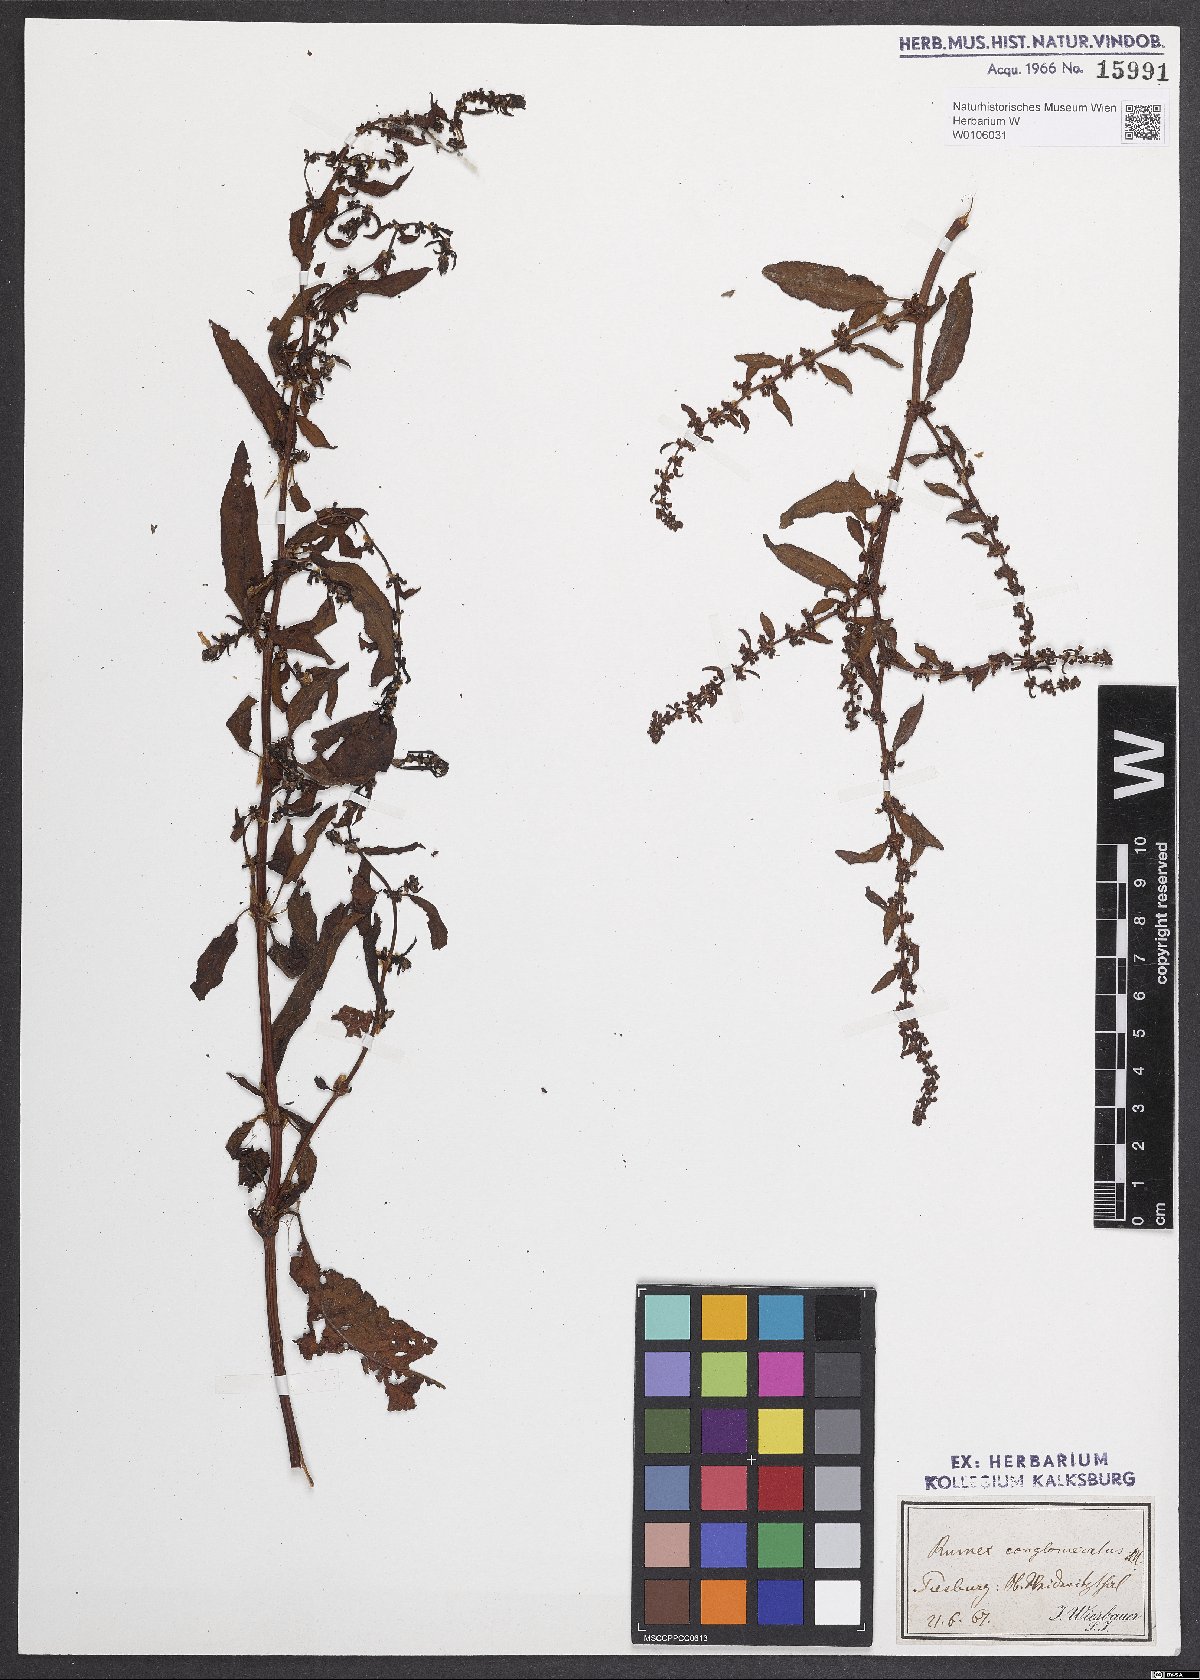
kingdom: Plantae
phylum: Tracheophyta
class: Magnoliopsida
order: Caryophyllales
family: Polygonaceae
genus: Rumex
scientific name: Rumex conglomeratus
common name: Clustered dock
